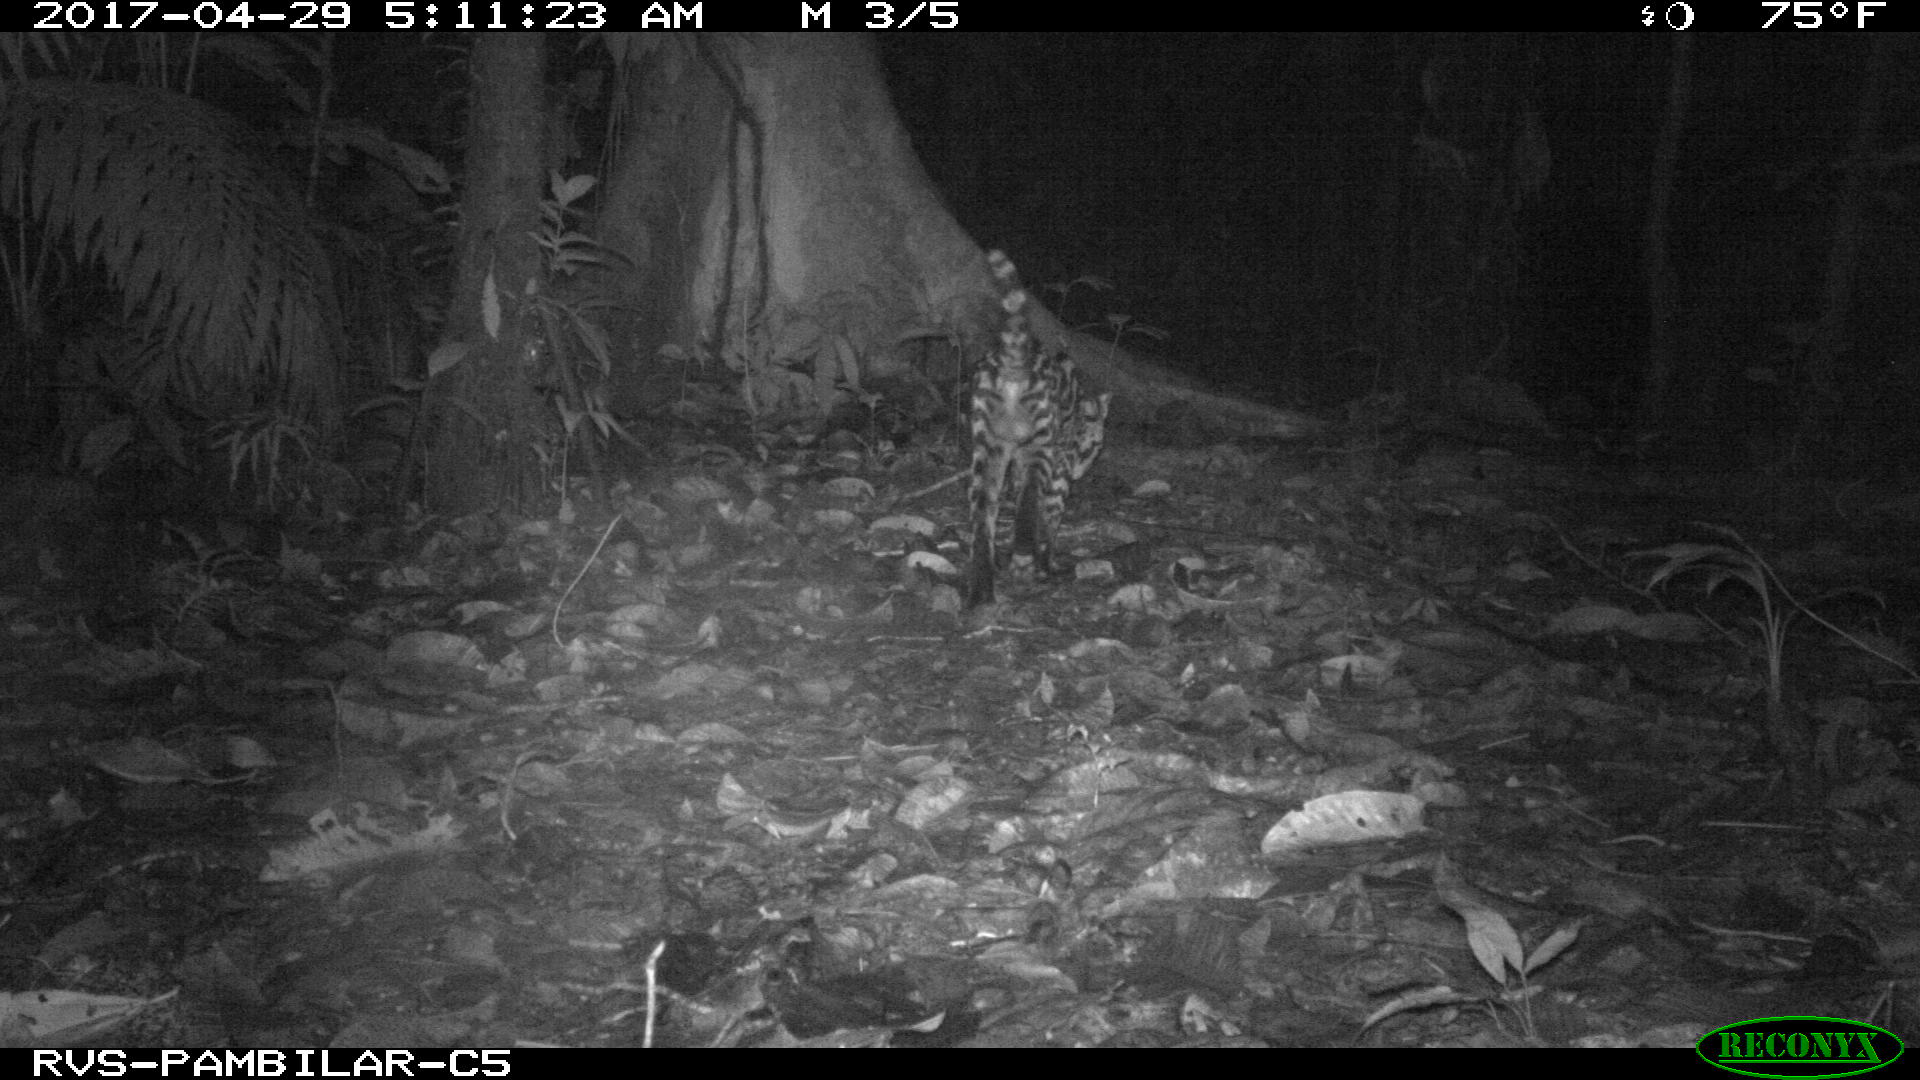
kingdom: Animalia
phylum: Chordata
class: Mammalia
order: Carnivora
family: Felidae
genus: Leopardus
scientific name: Leopardus pardalis
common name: Ocelot
